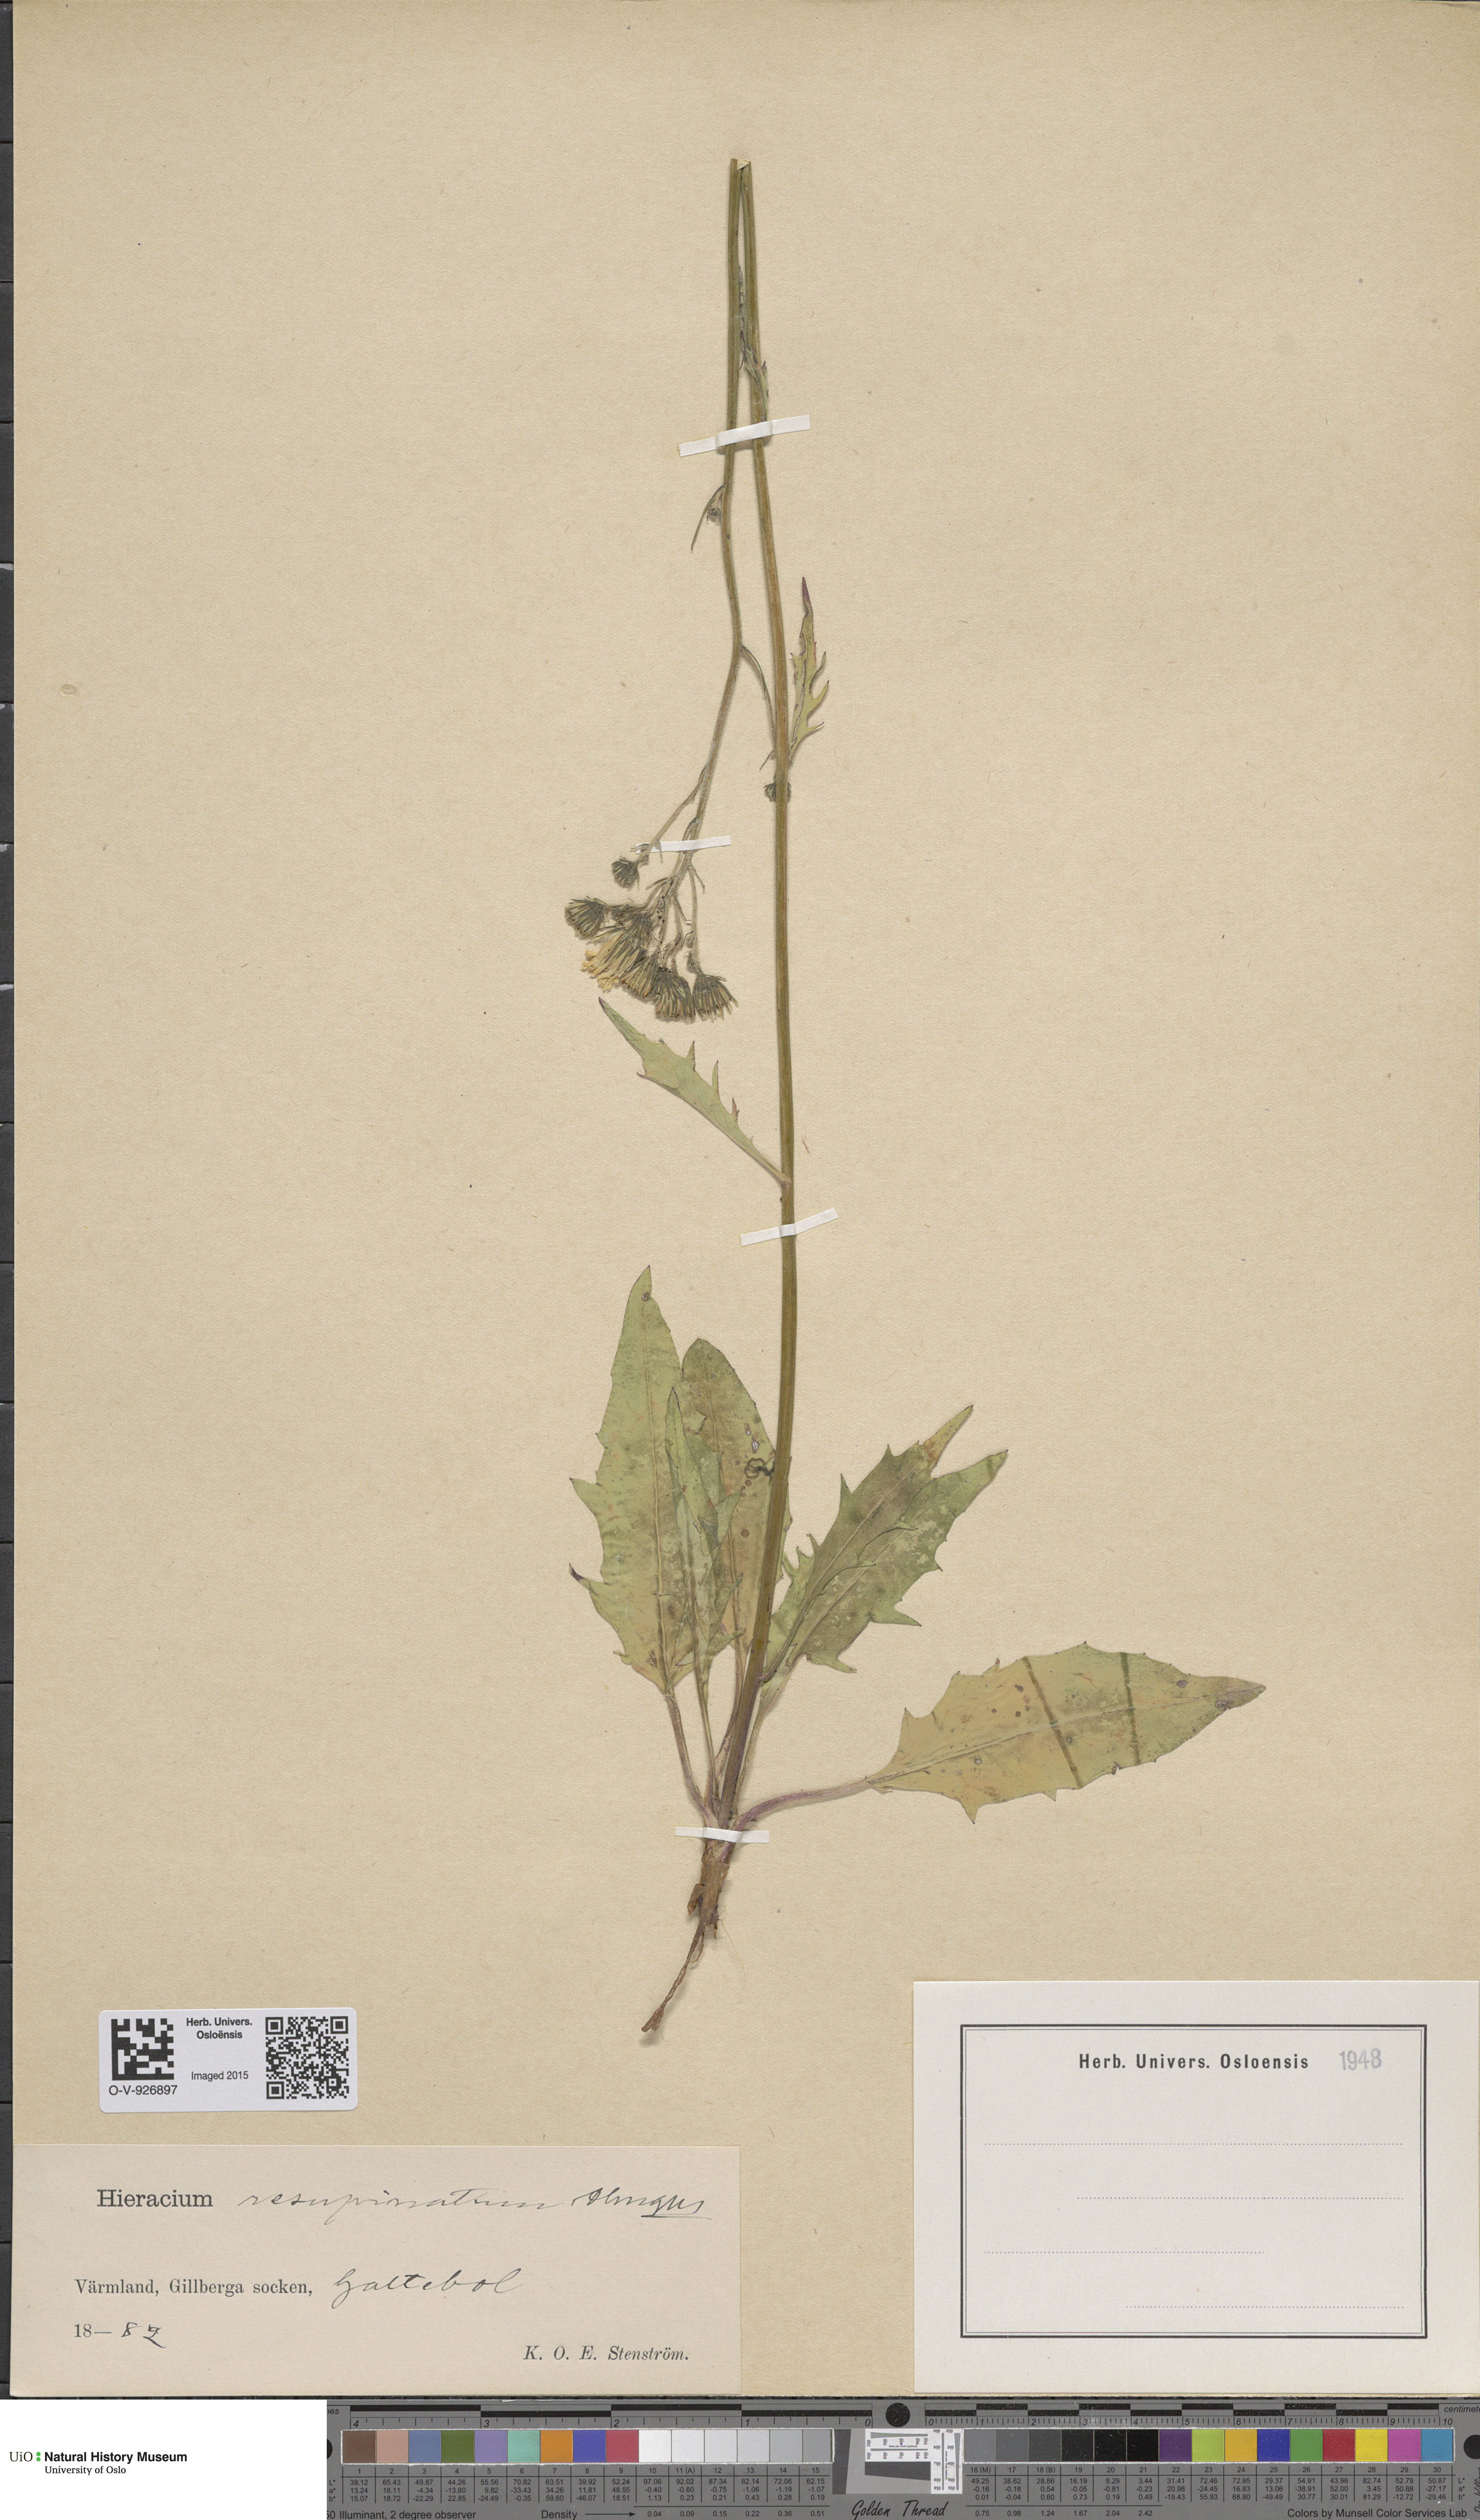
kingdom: Plantae
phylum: Tracheophyta
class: Magnoliopsida
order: Asterales
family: Asteraceae
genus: Hieracium
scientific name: Hieracium resupinatum
